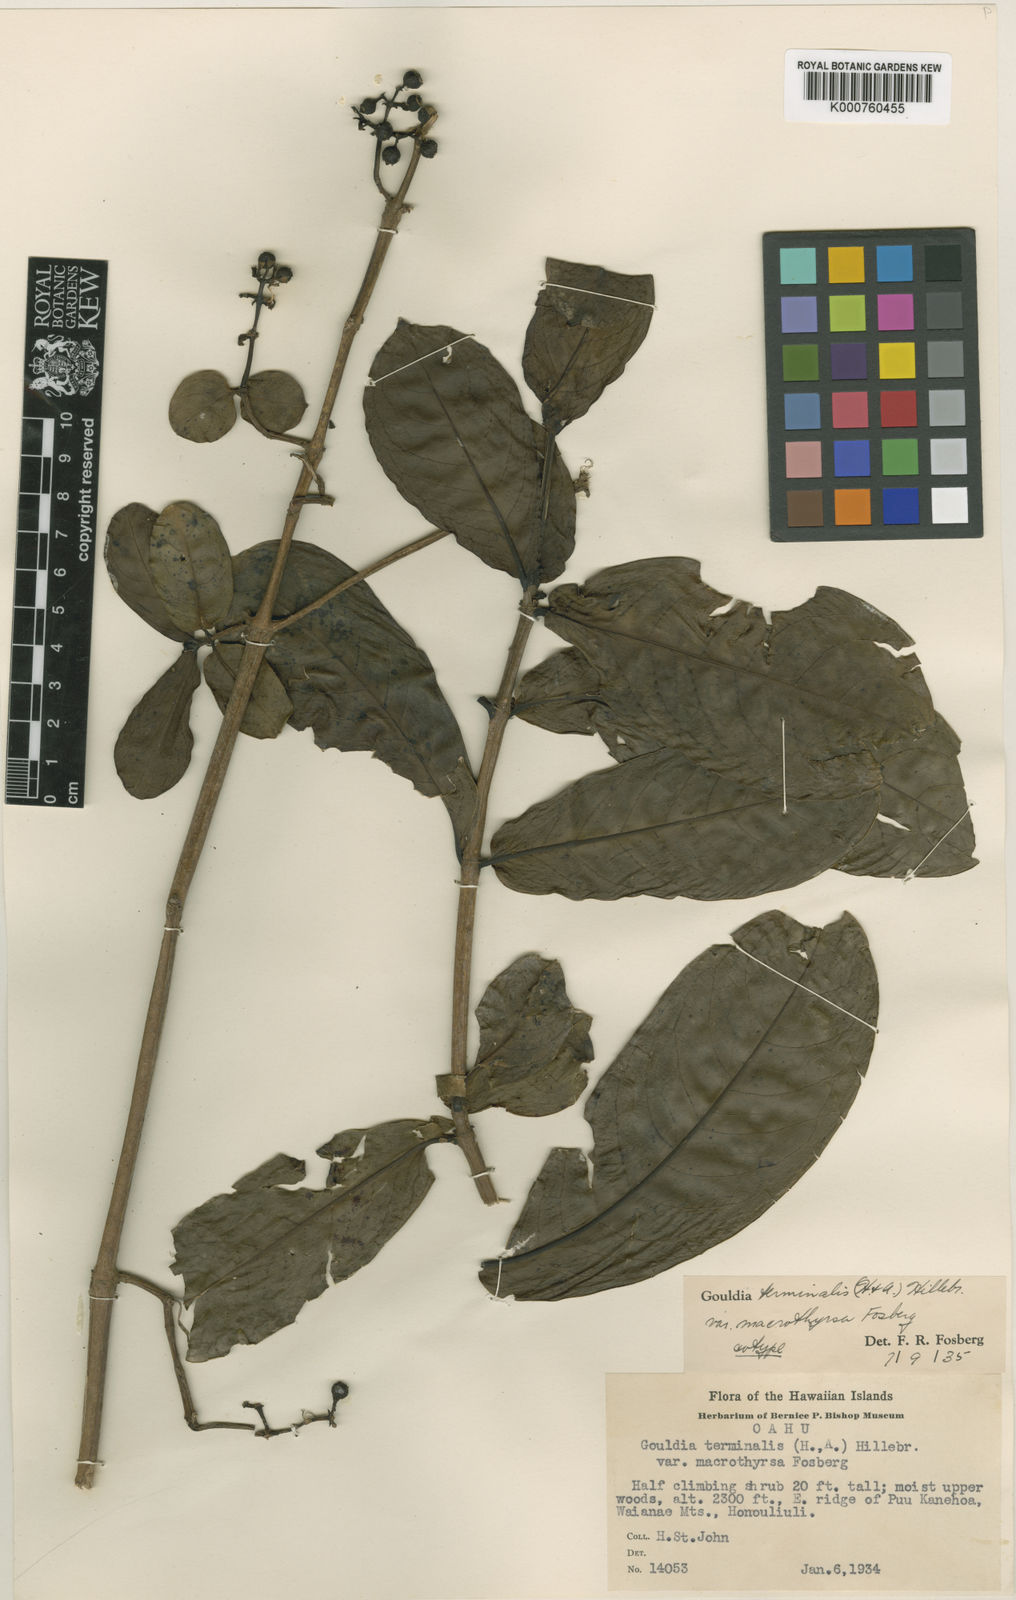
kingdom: Plantae
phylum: Tracheophyta
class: Magnoliopsida
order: Gentianales
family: Rubiaceae
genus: Kadua
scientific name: Kadua affinis
